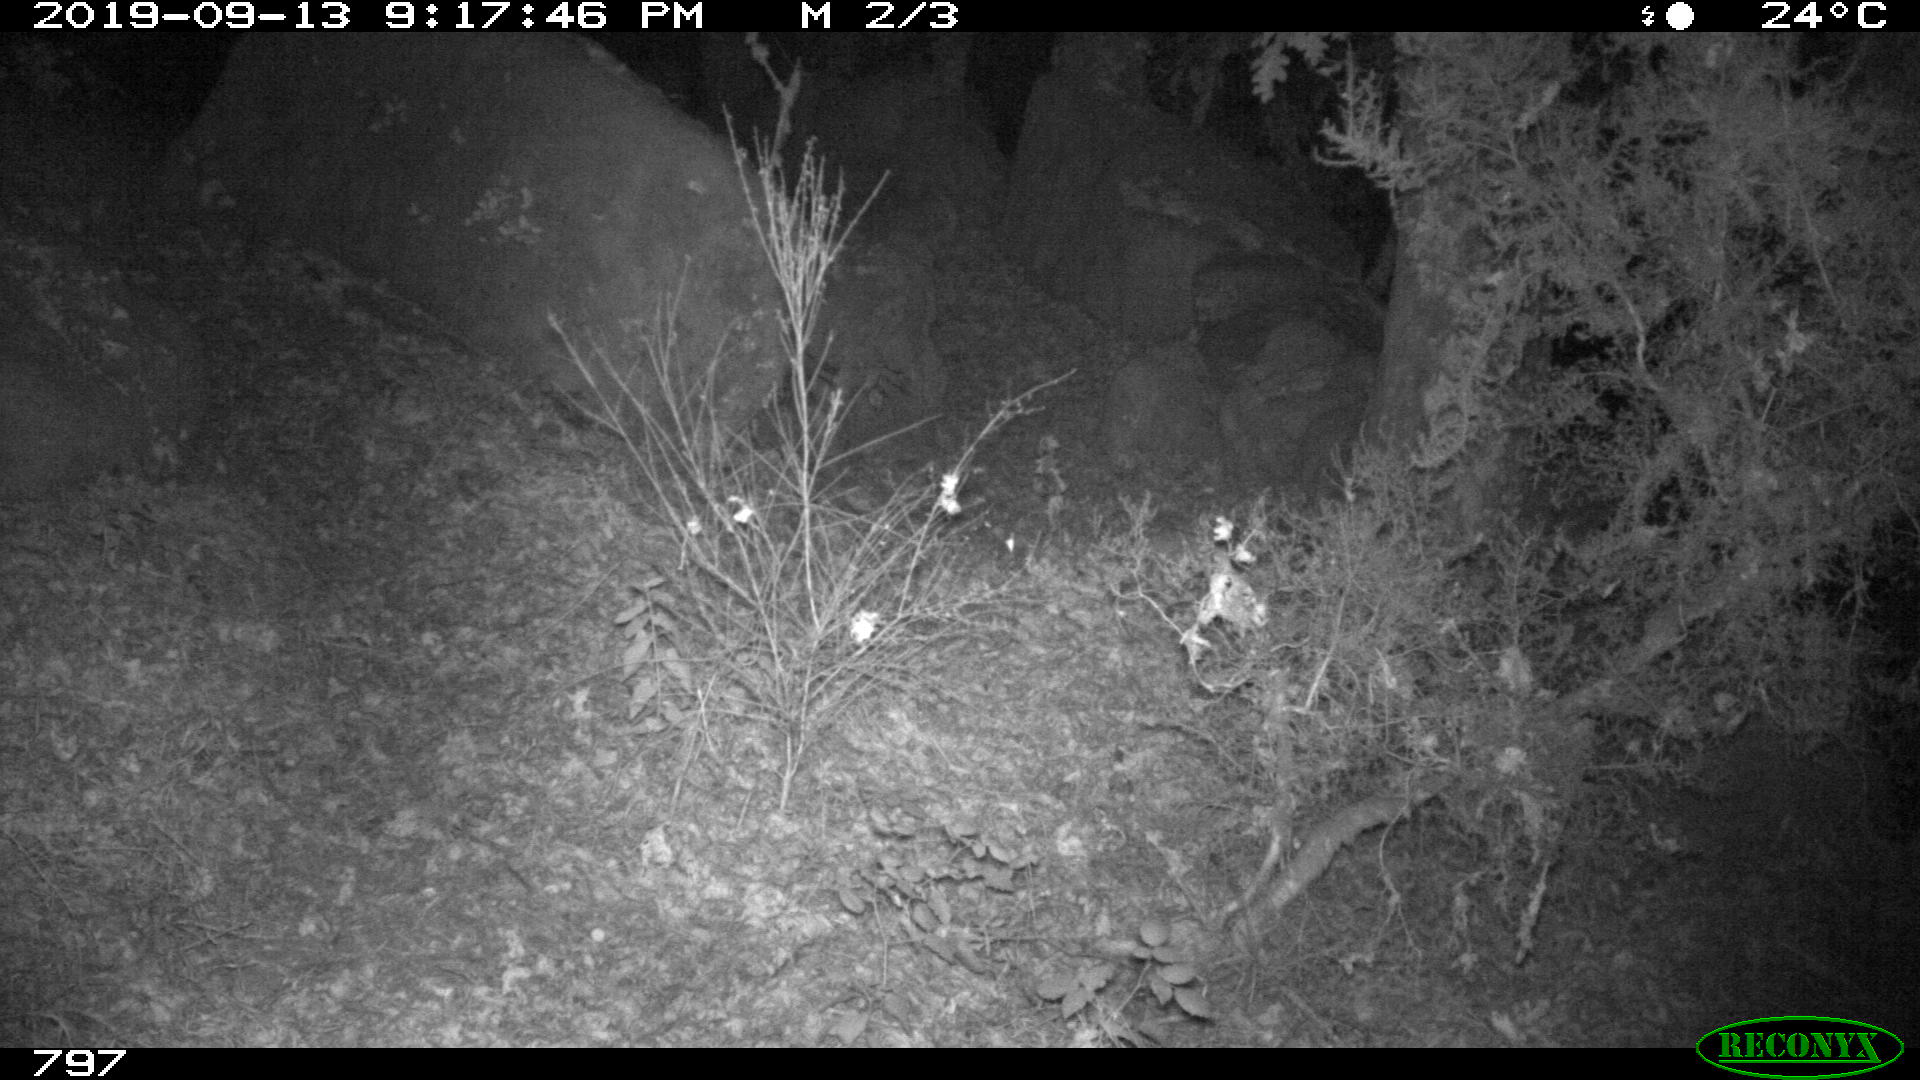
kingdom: Animalia
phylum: Chordata
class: Mammalia
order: Artiodactyla
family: Suidae
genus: Sus
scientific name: Sus scrofa
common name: Wild boar
